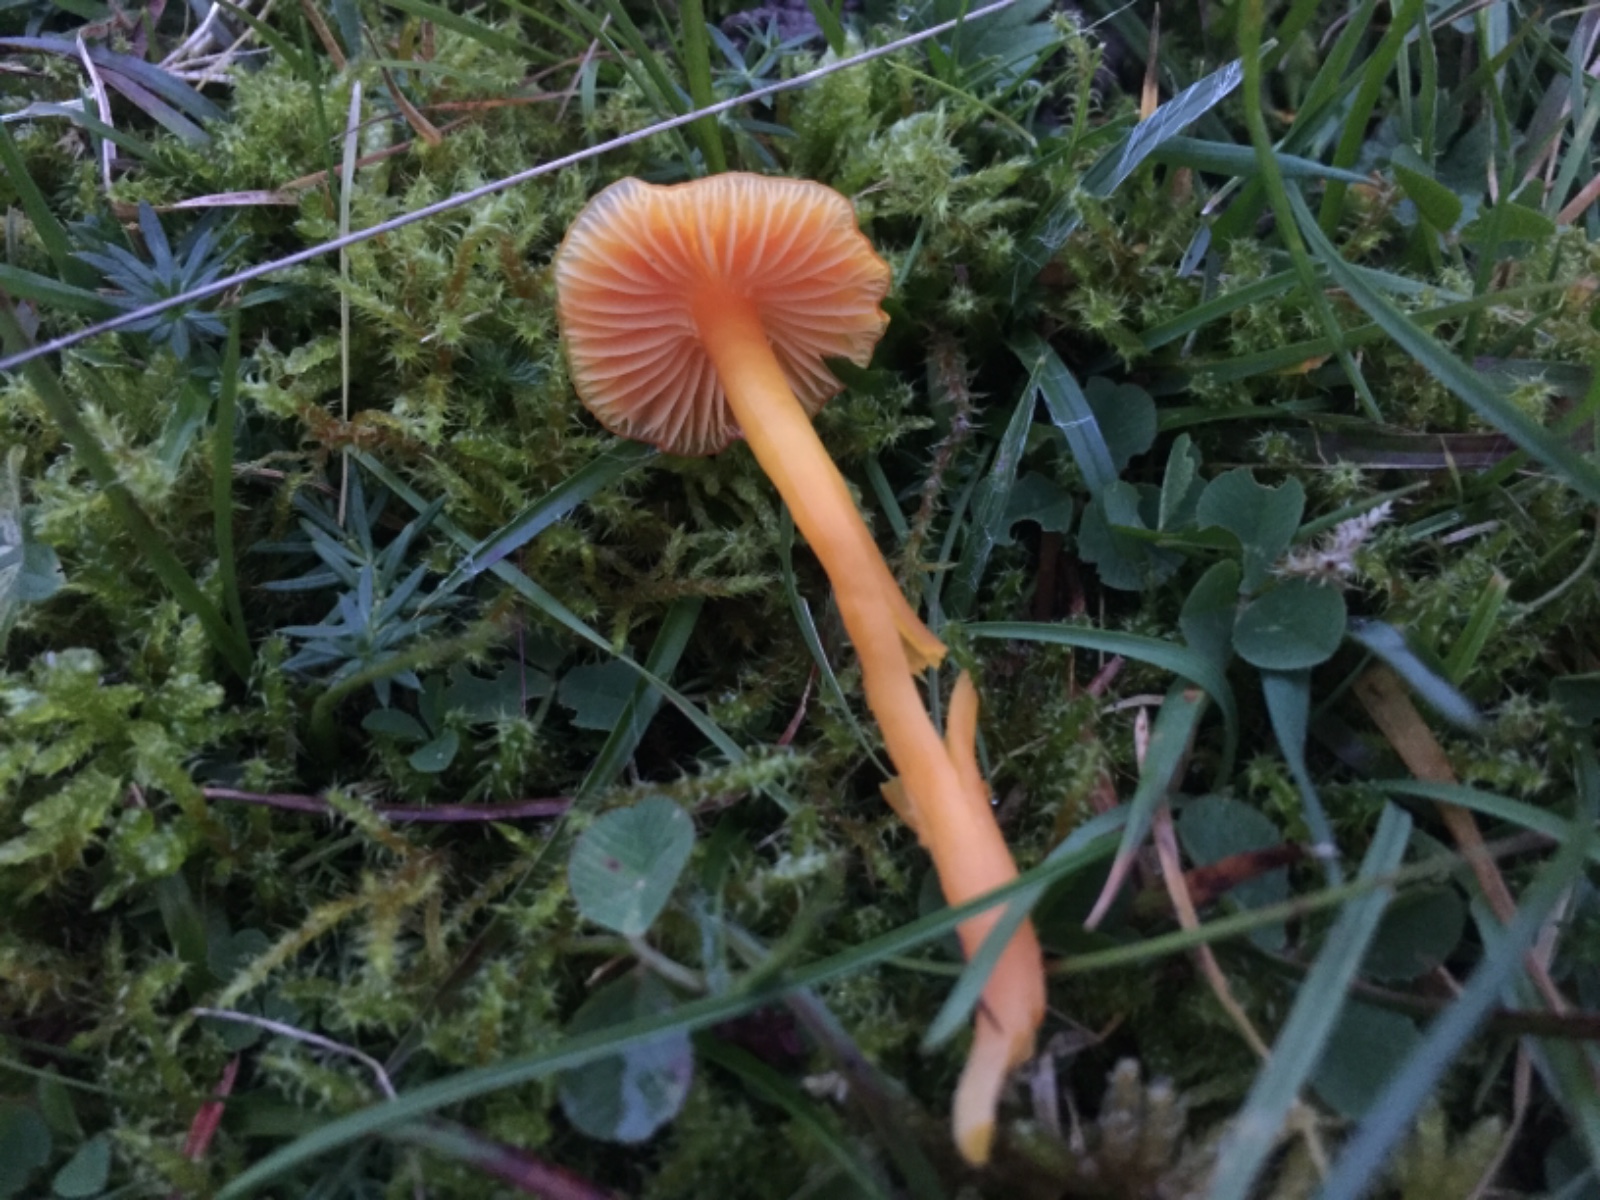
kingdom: Fungi
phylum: Basidiomycota
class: Agaricomycetes
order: Agaricales
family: Hygrophoraceae
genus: Hygrocybe
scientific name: Hygrocybe
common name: vokshat
